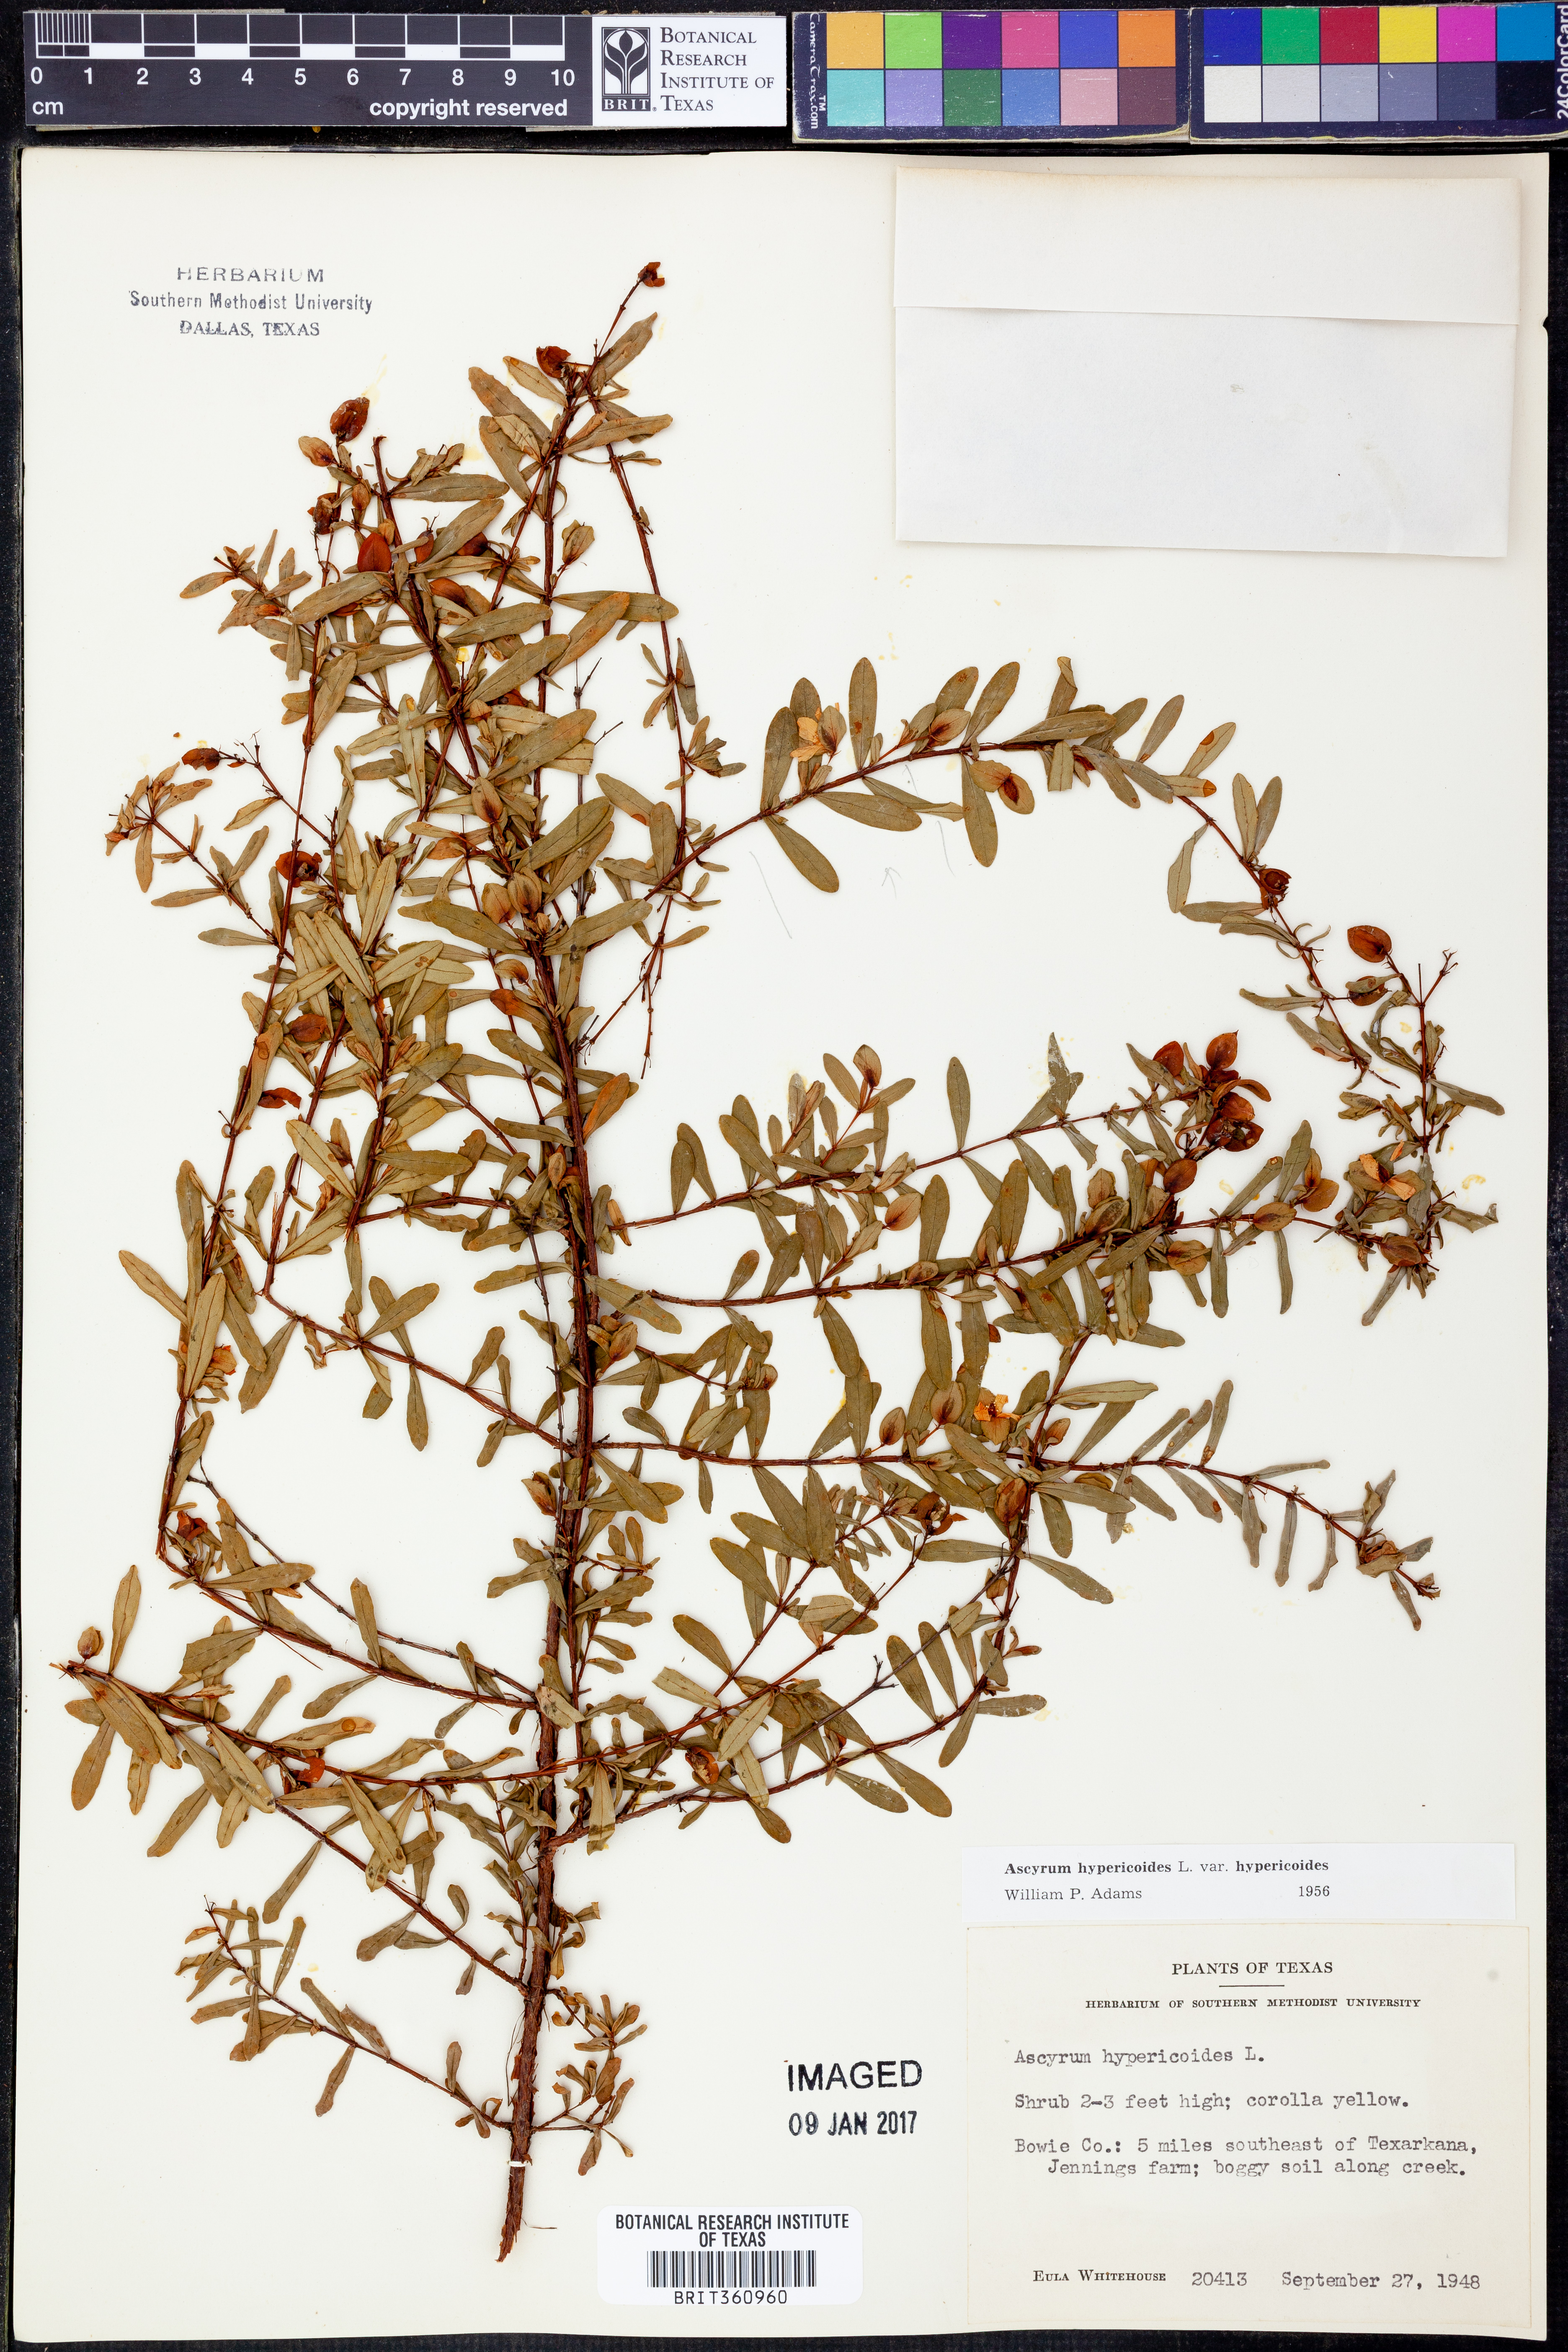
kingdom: Plantae
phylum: Tracheophyta
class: Magnoliopsida
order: Malpighiales
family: Hypericaceae
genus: Hypericum
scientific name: Hypericum hypericoides
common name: St. andrew's cross
